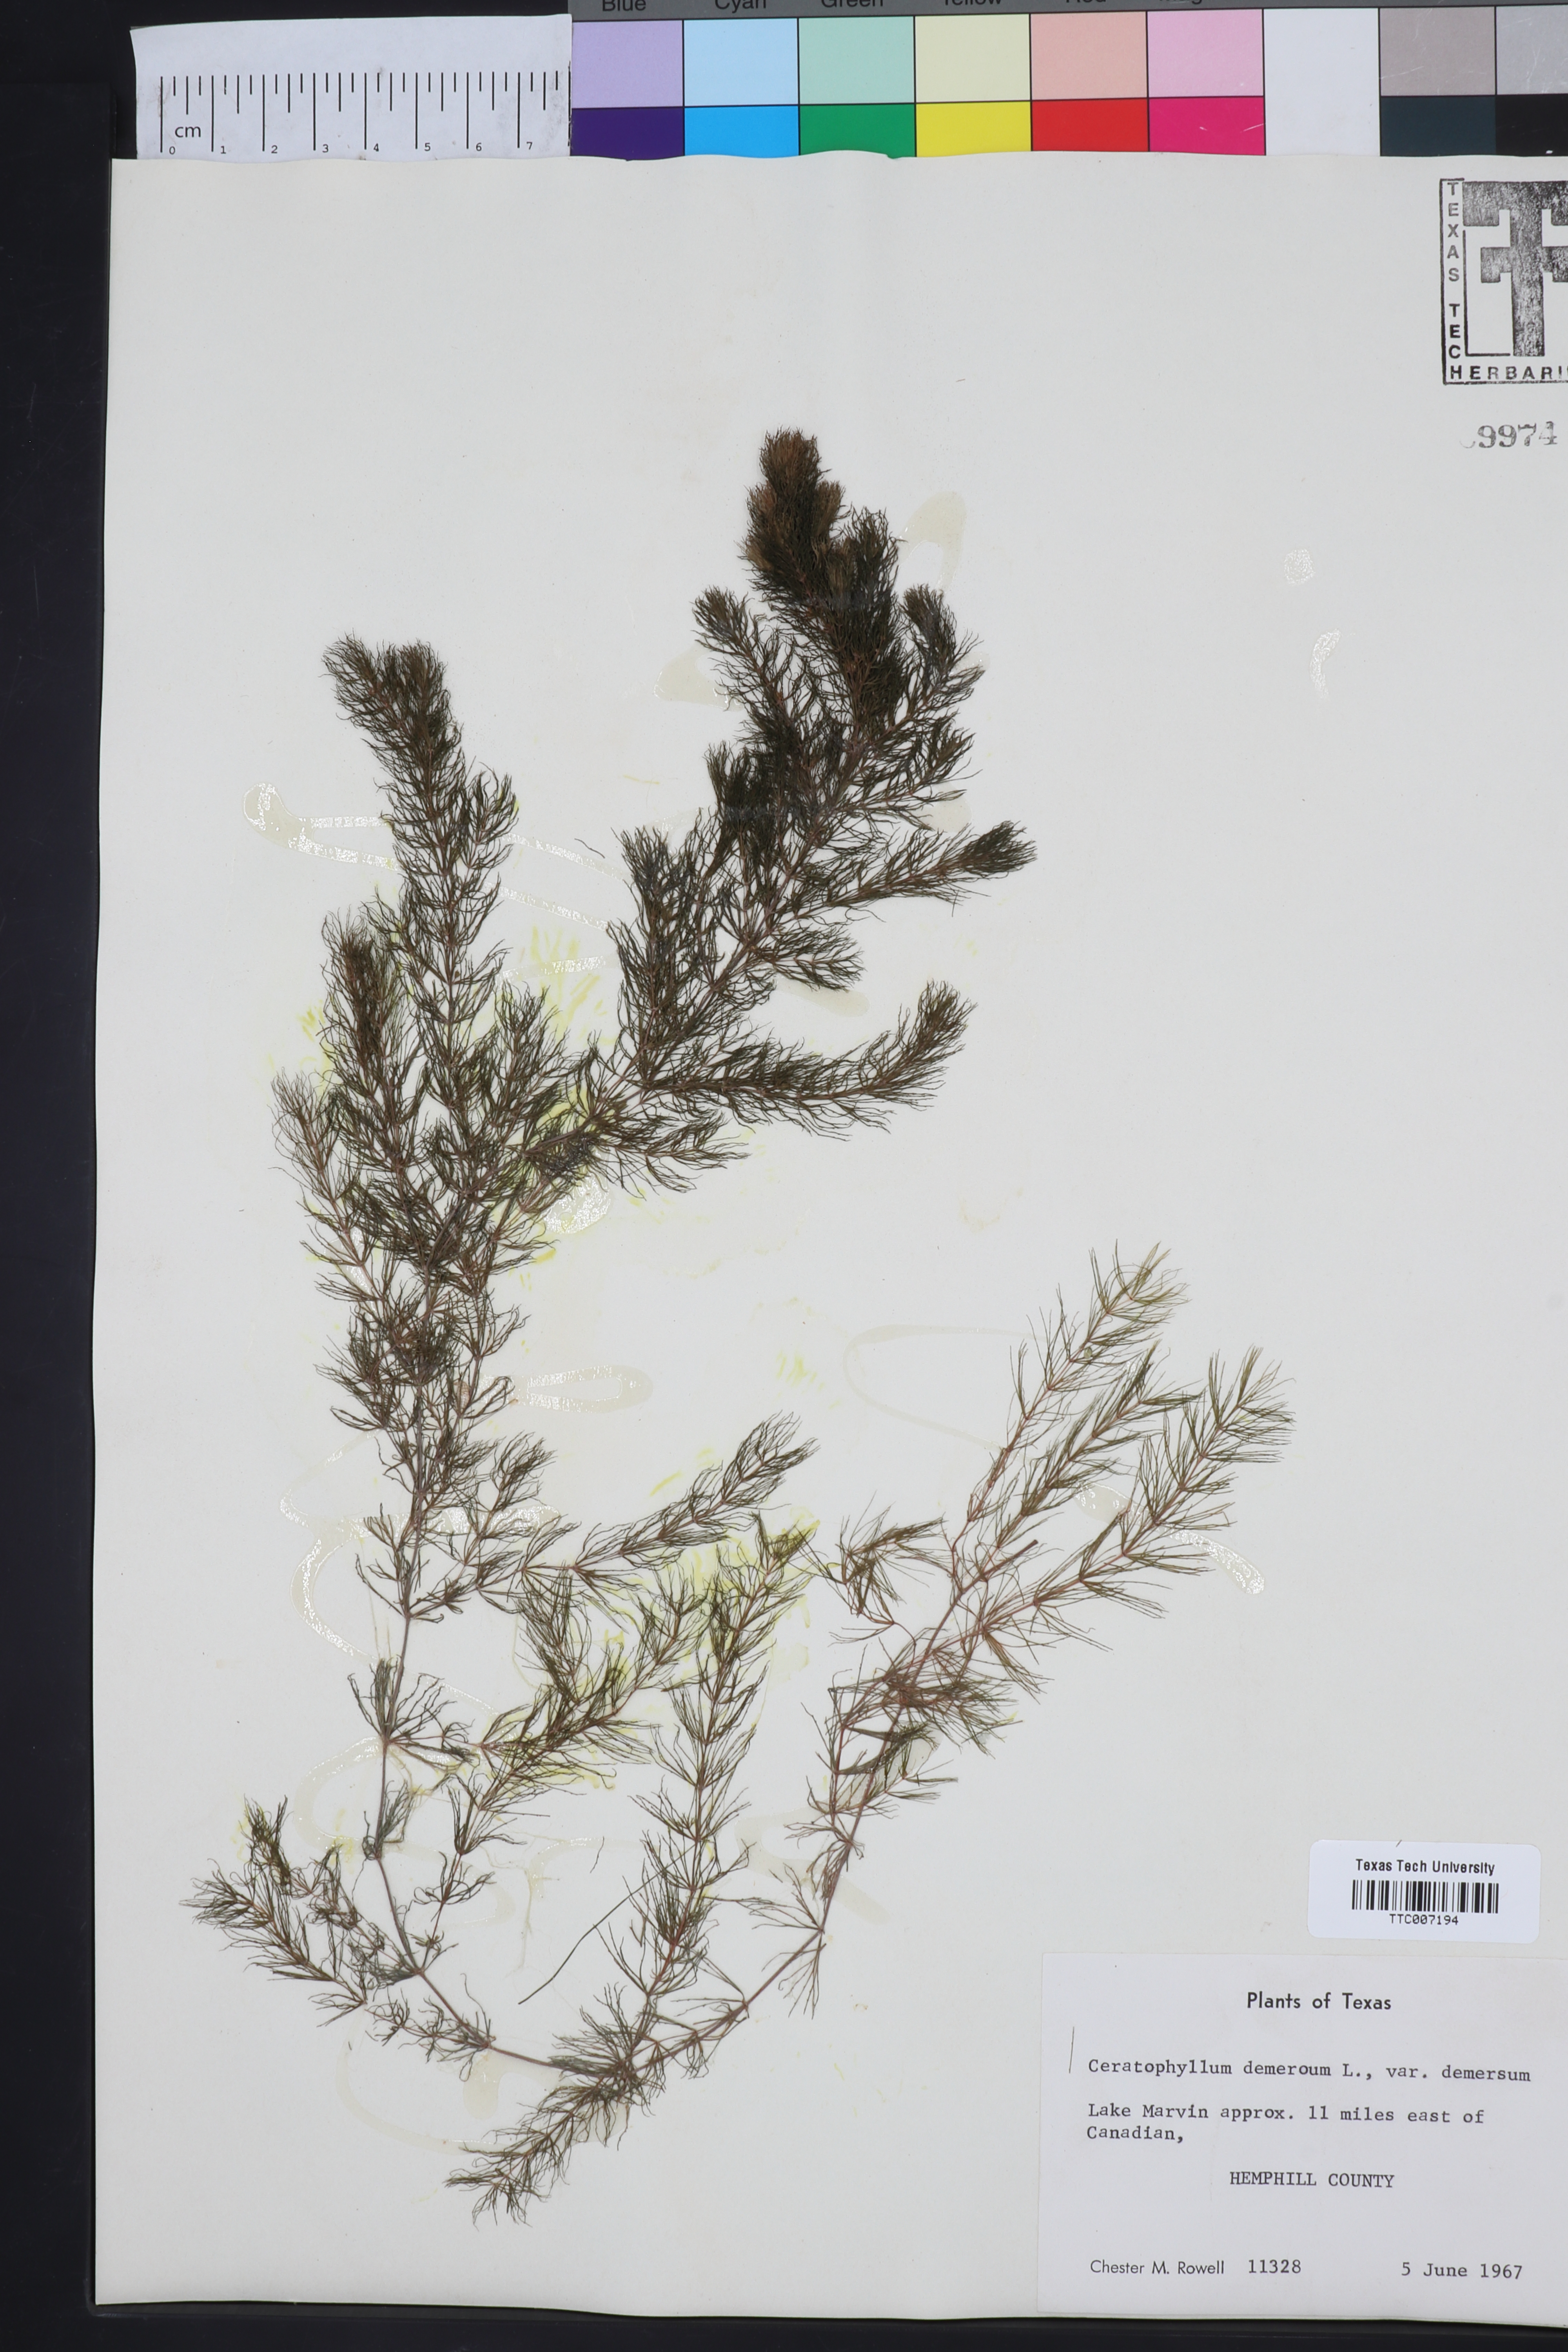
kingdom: Plantae
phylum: Tracheophyta
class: Magnoliopsida
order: Ceratophyllales
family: Ceratophyllaceae
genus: Ceratophyllum
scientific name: Ceratophyllum demersum
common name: Rigid hornwort
